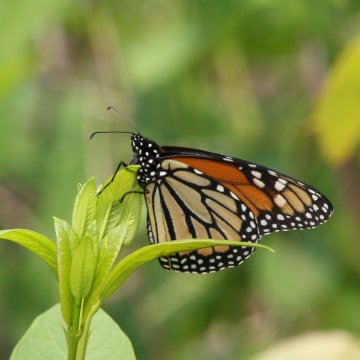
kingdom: Animalia
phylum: Arthropoda
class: Insecta
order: Lepidoptera
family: Nymphalidae
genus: Danaus
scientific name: Danaus plexippus
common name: Monarch
